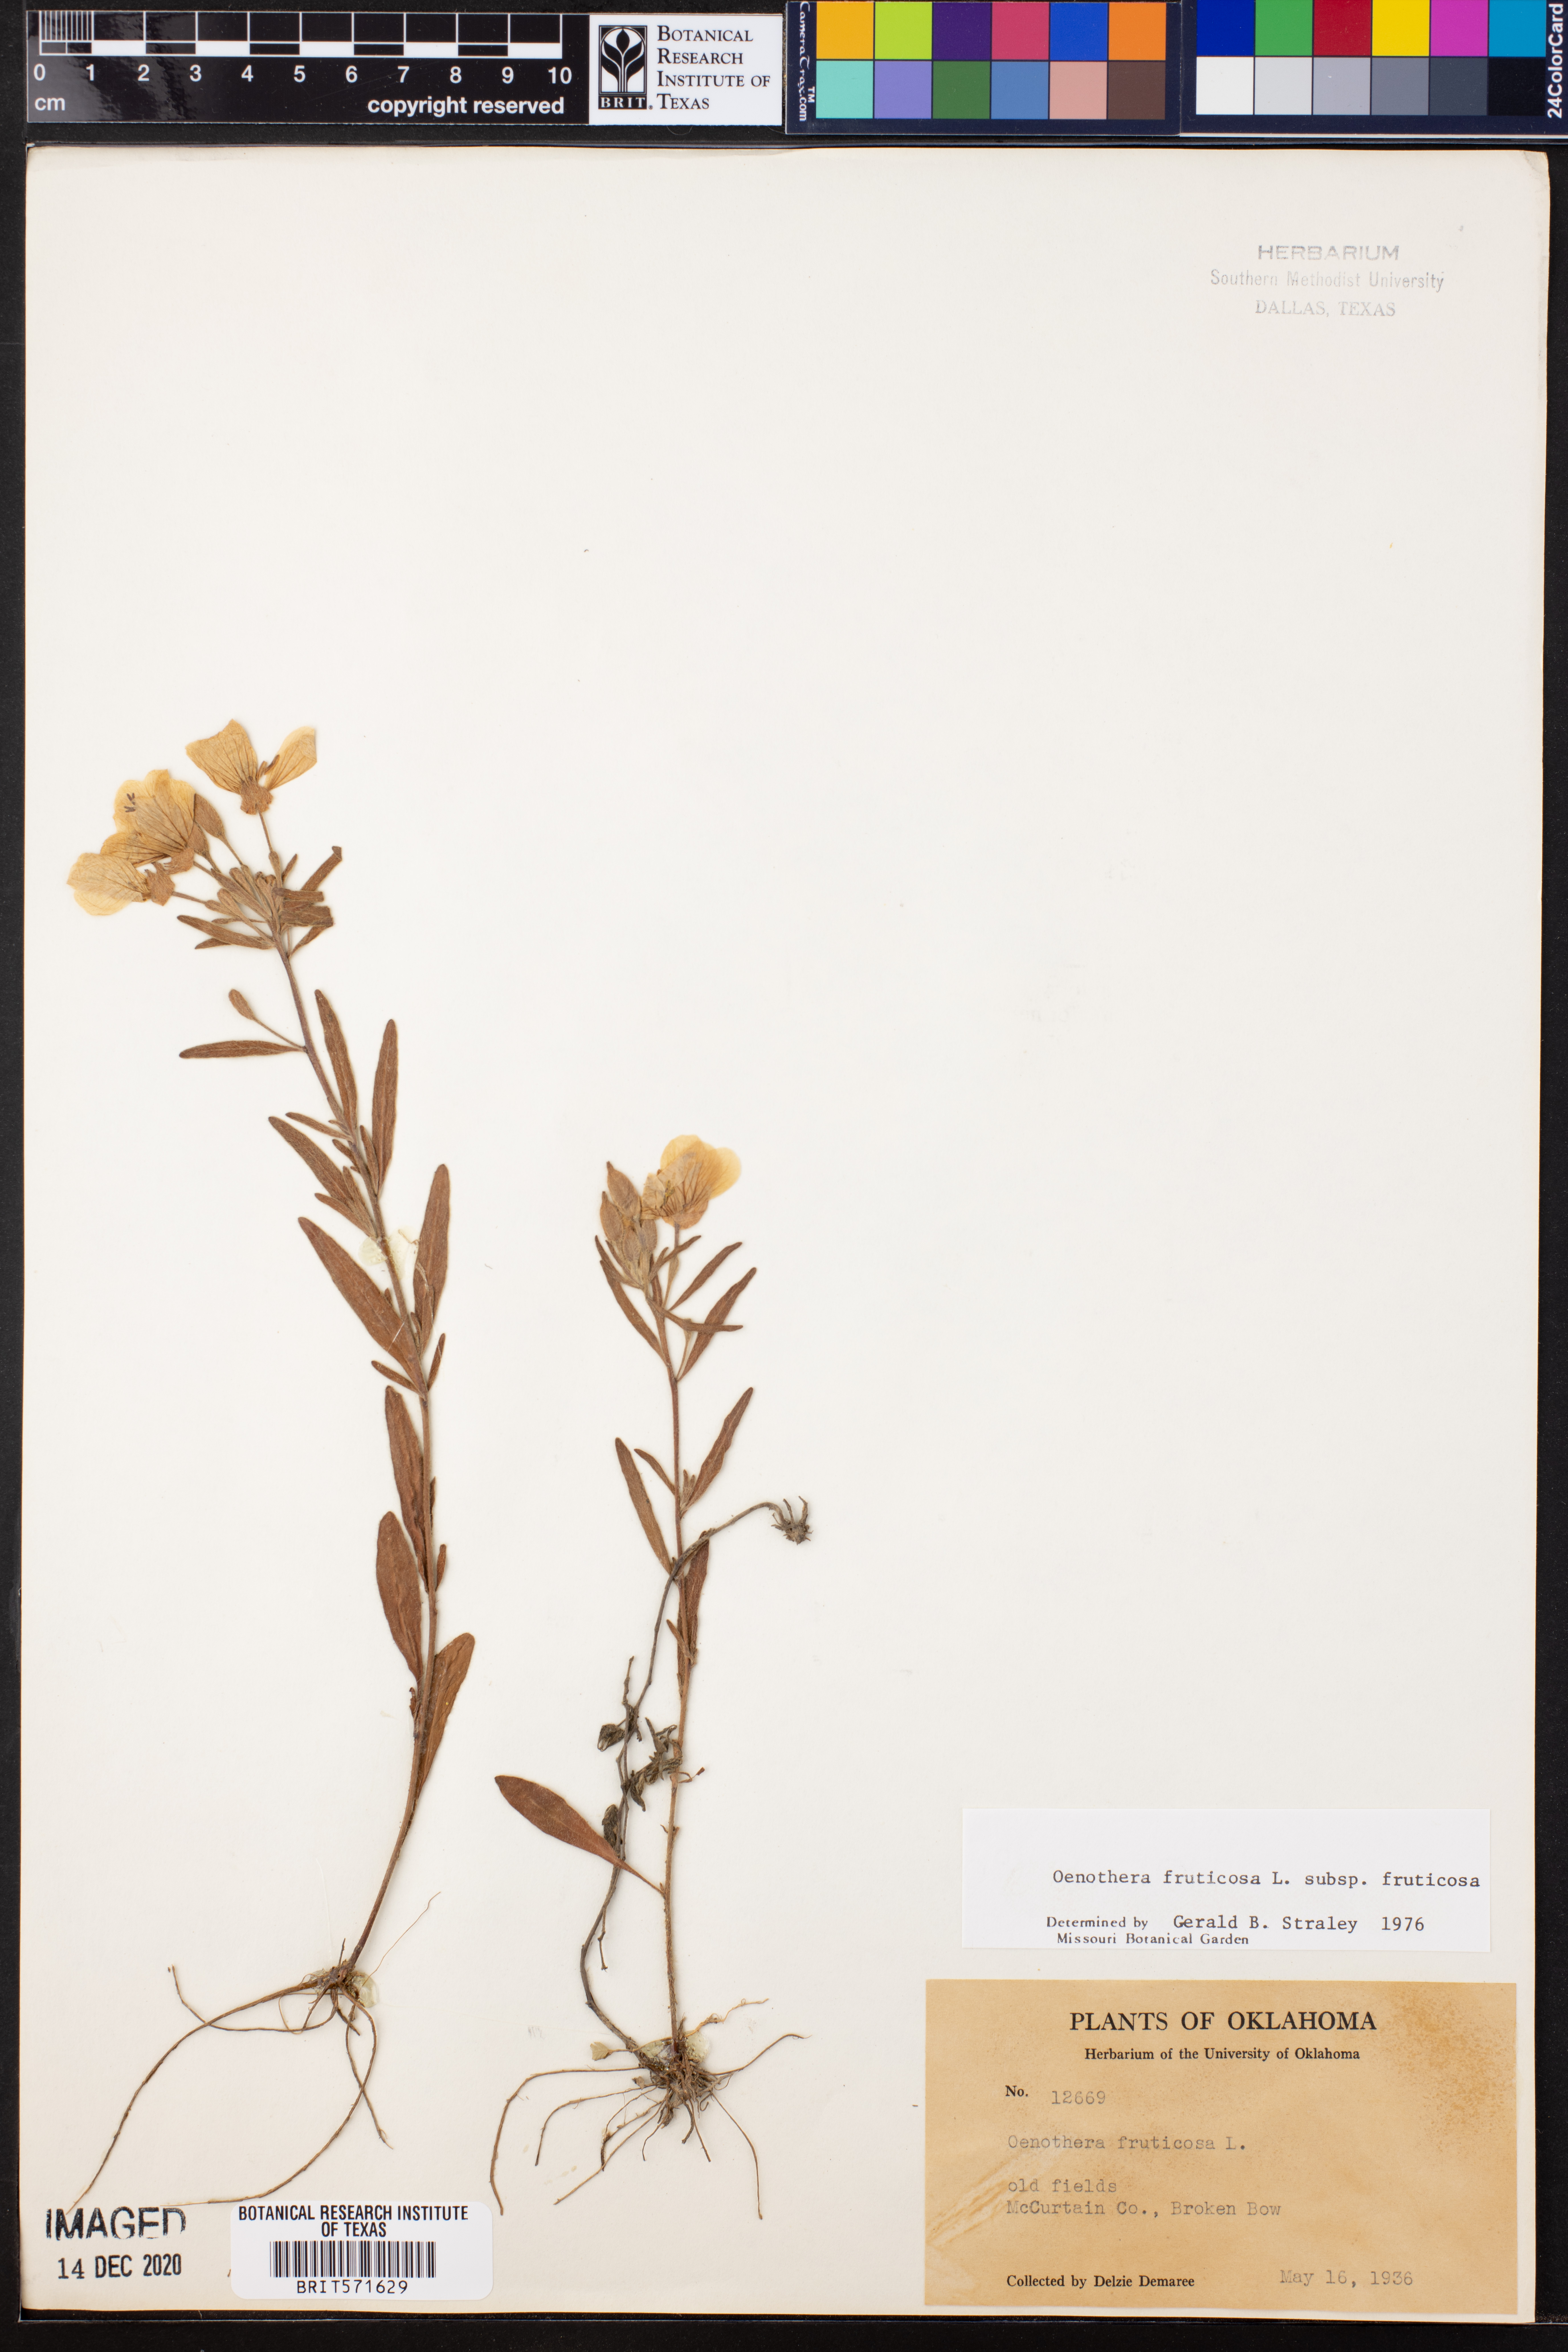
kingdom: Plantae
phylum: Tracheophyta
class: Magnoliopsida
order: Myrtales
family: Onagraceae
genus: Oenothera
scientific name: Oenothera fruticosa
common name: Southern sundrops
